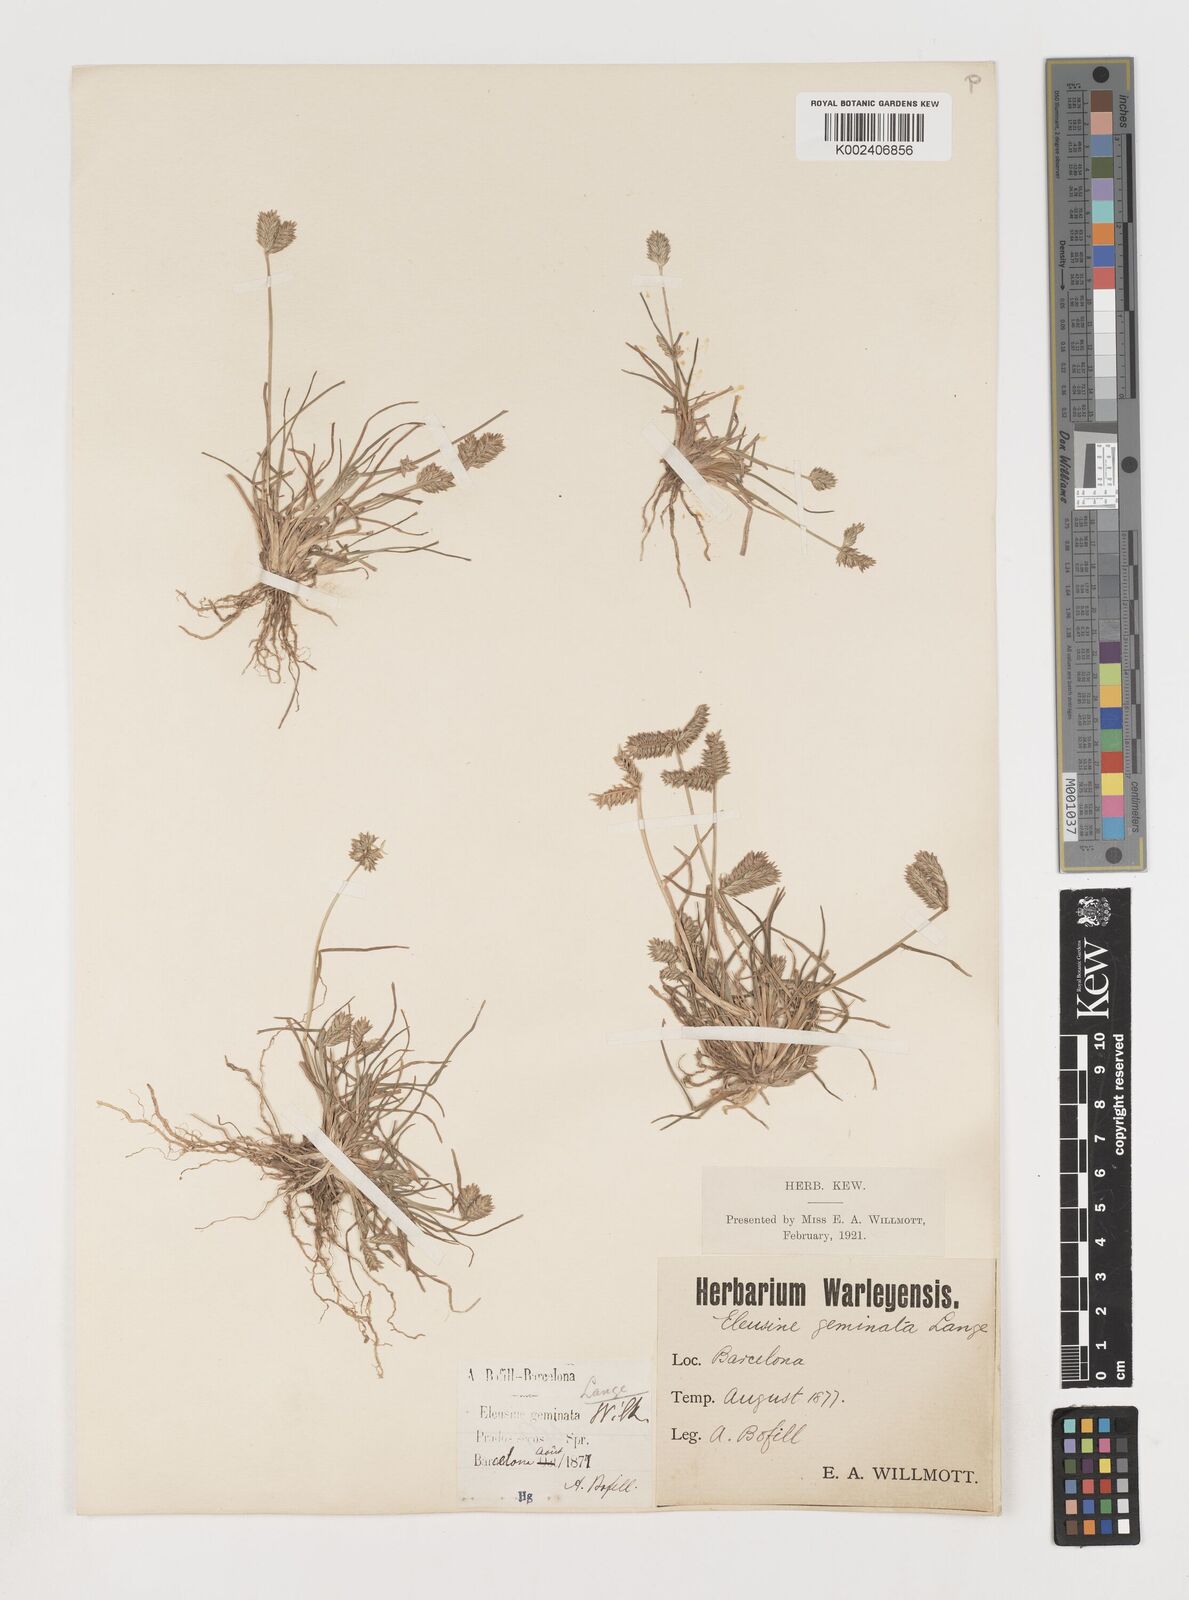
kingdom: Plantae
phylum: Tracheophyta
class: Liliopsida
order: Poales
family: Poaceae
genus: Eleusine
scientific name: Eleusine tristachya
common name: American yard-grass
